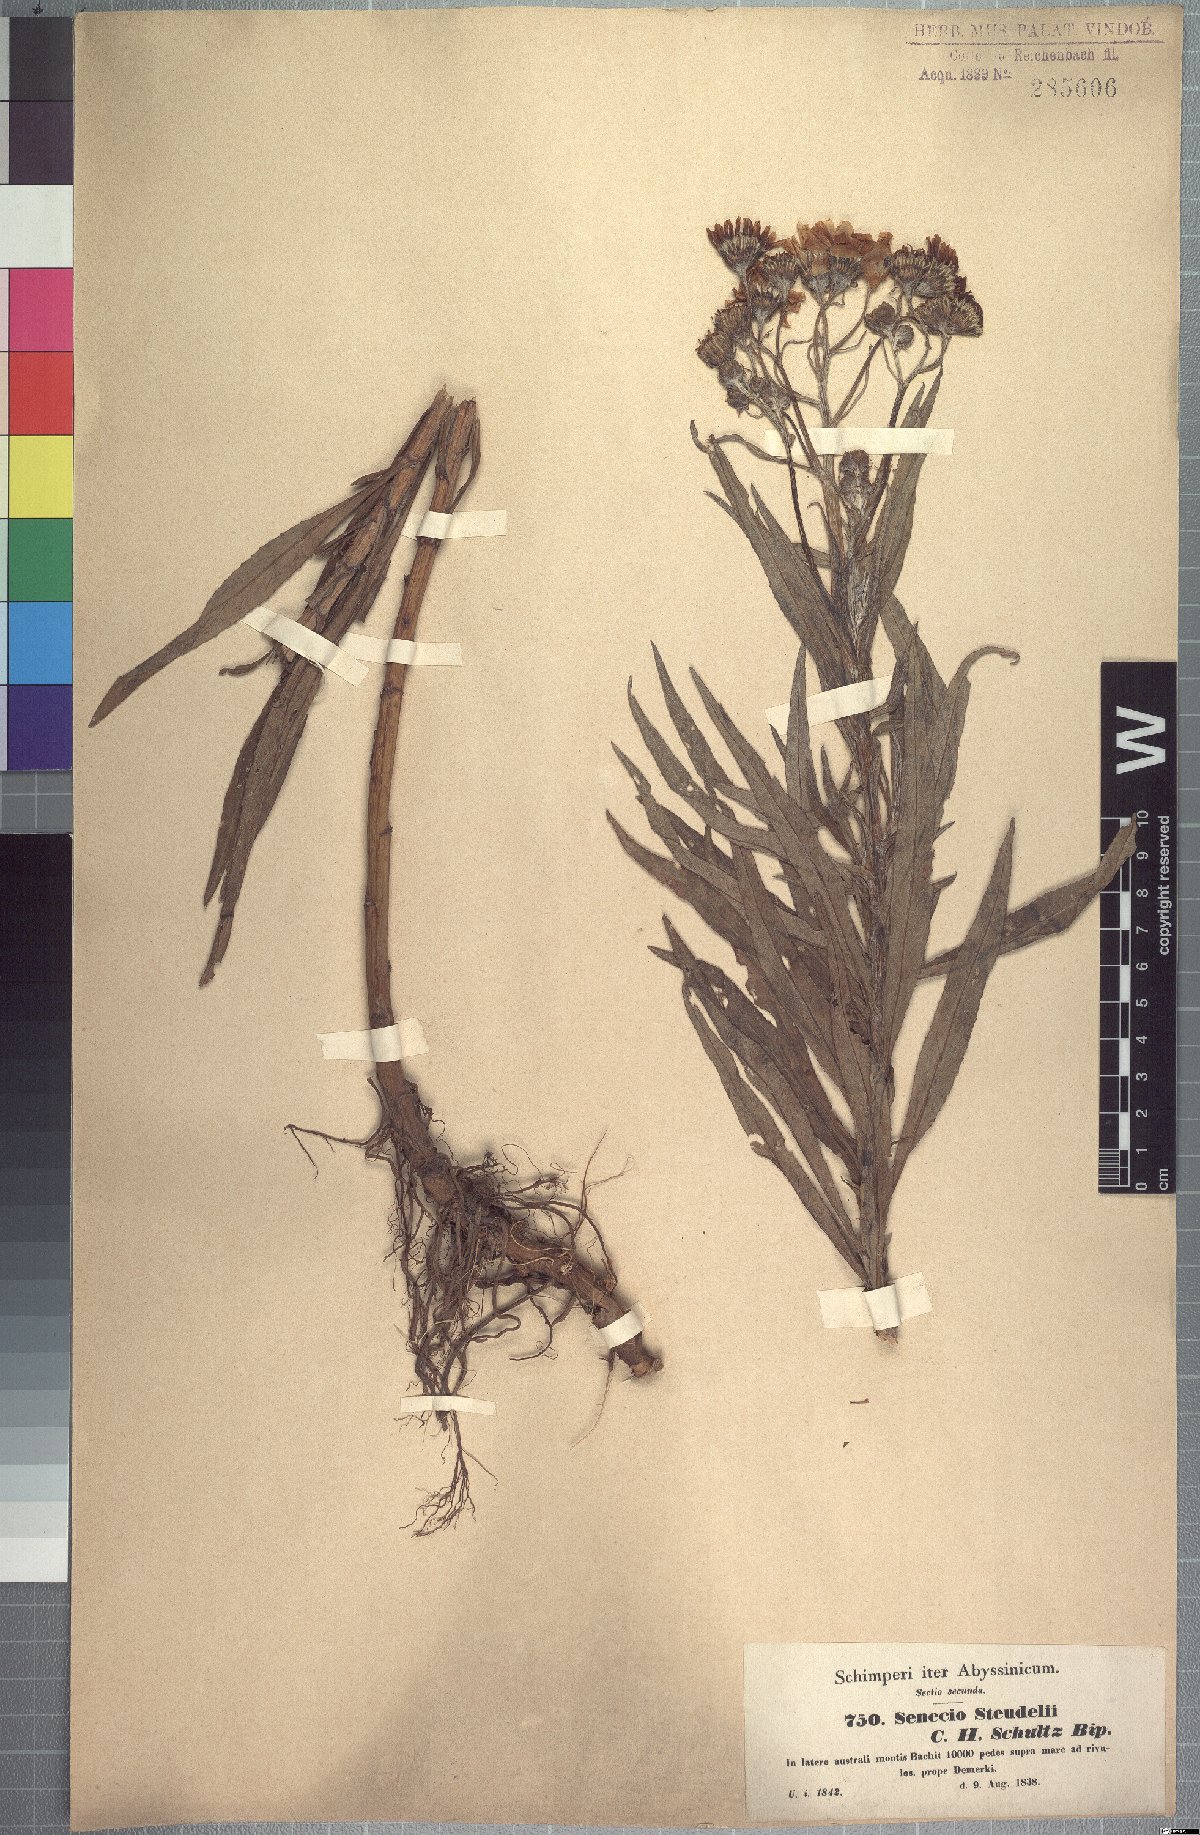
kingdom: Plantae
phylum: Tracheophyta
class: Magnoliopsida
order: Asterales
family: Asteraceae
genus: Senecio
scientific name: Senecio steudelii
